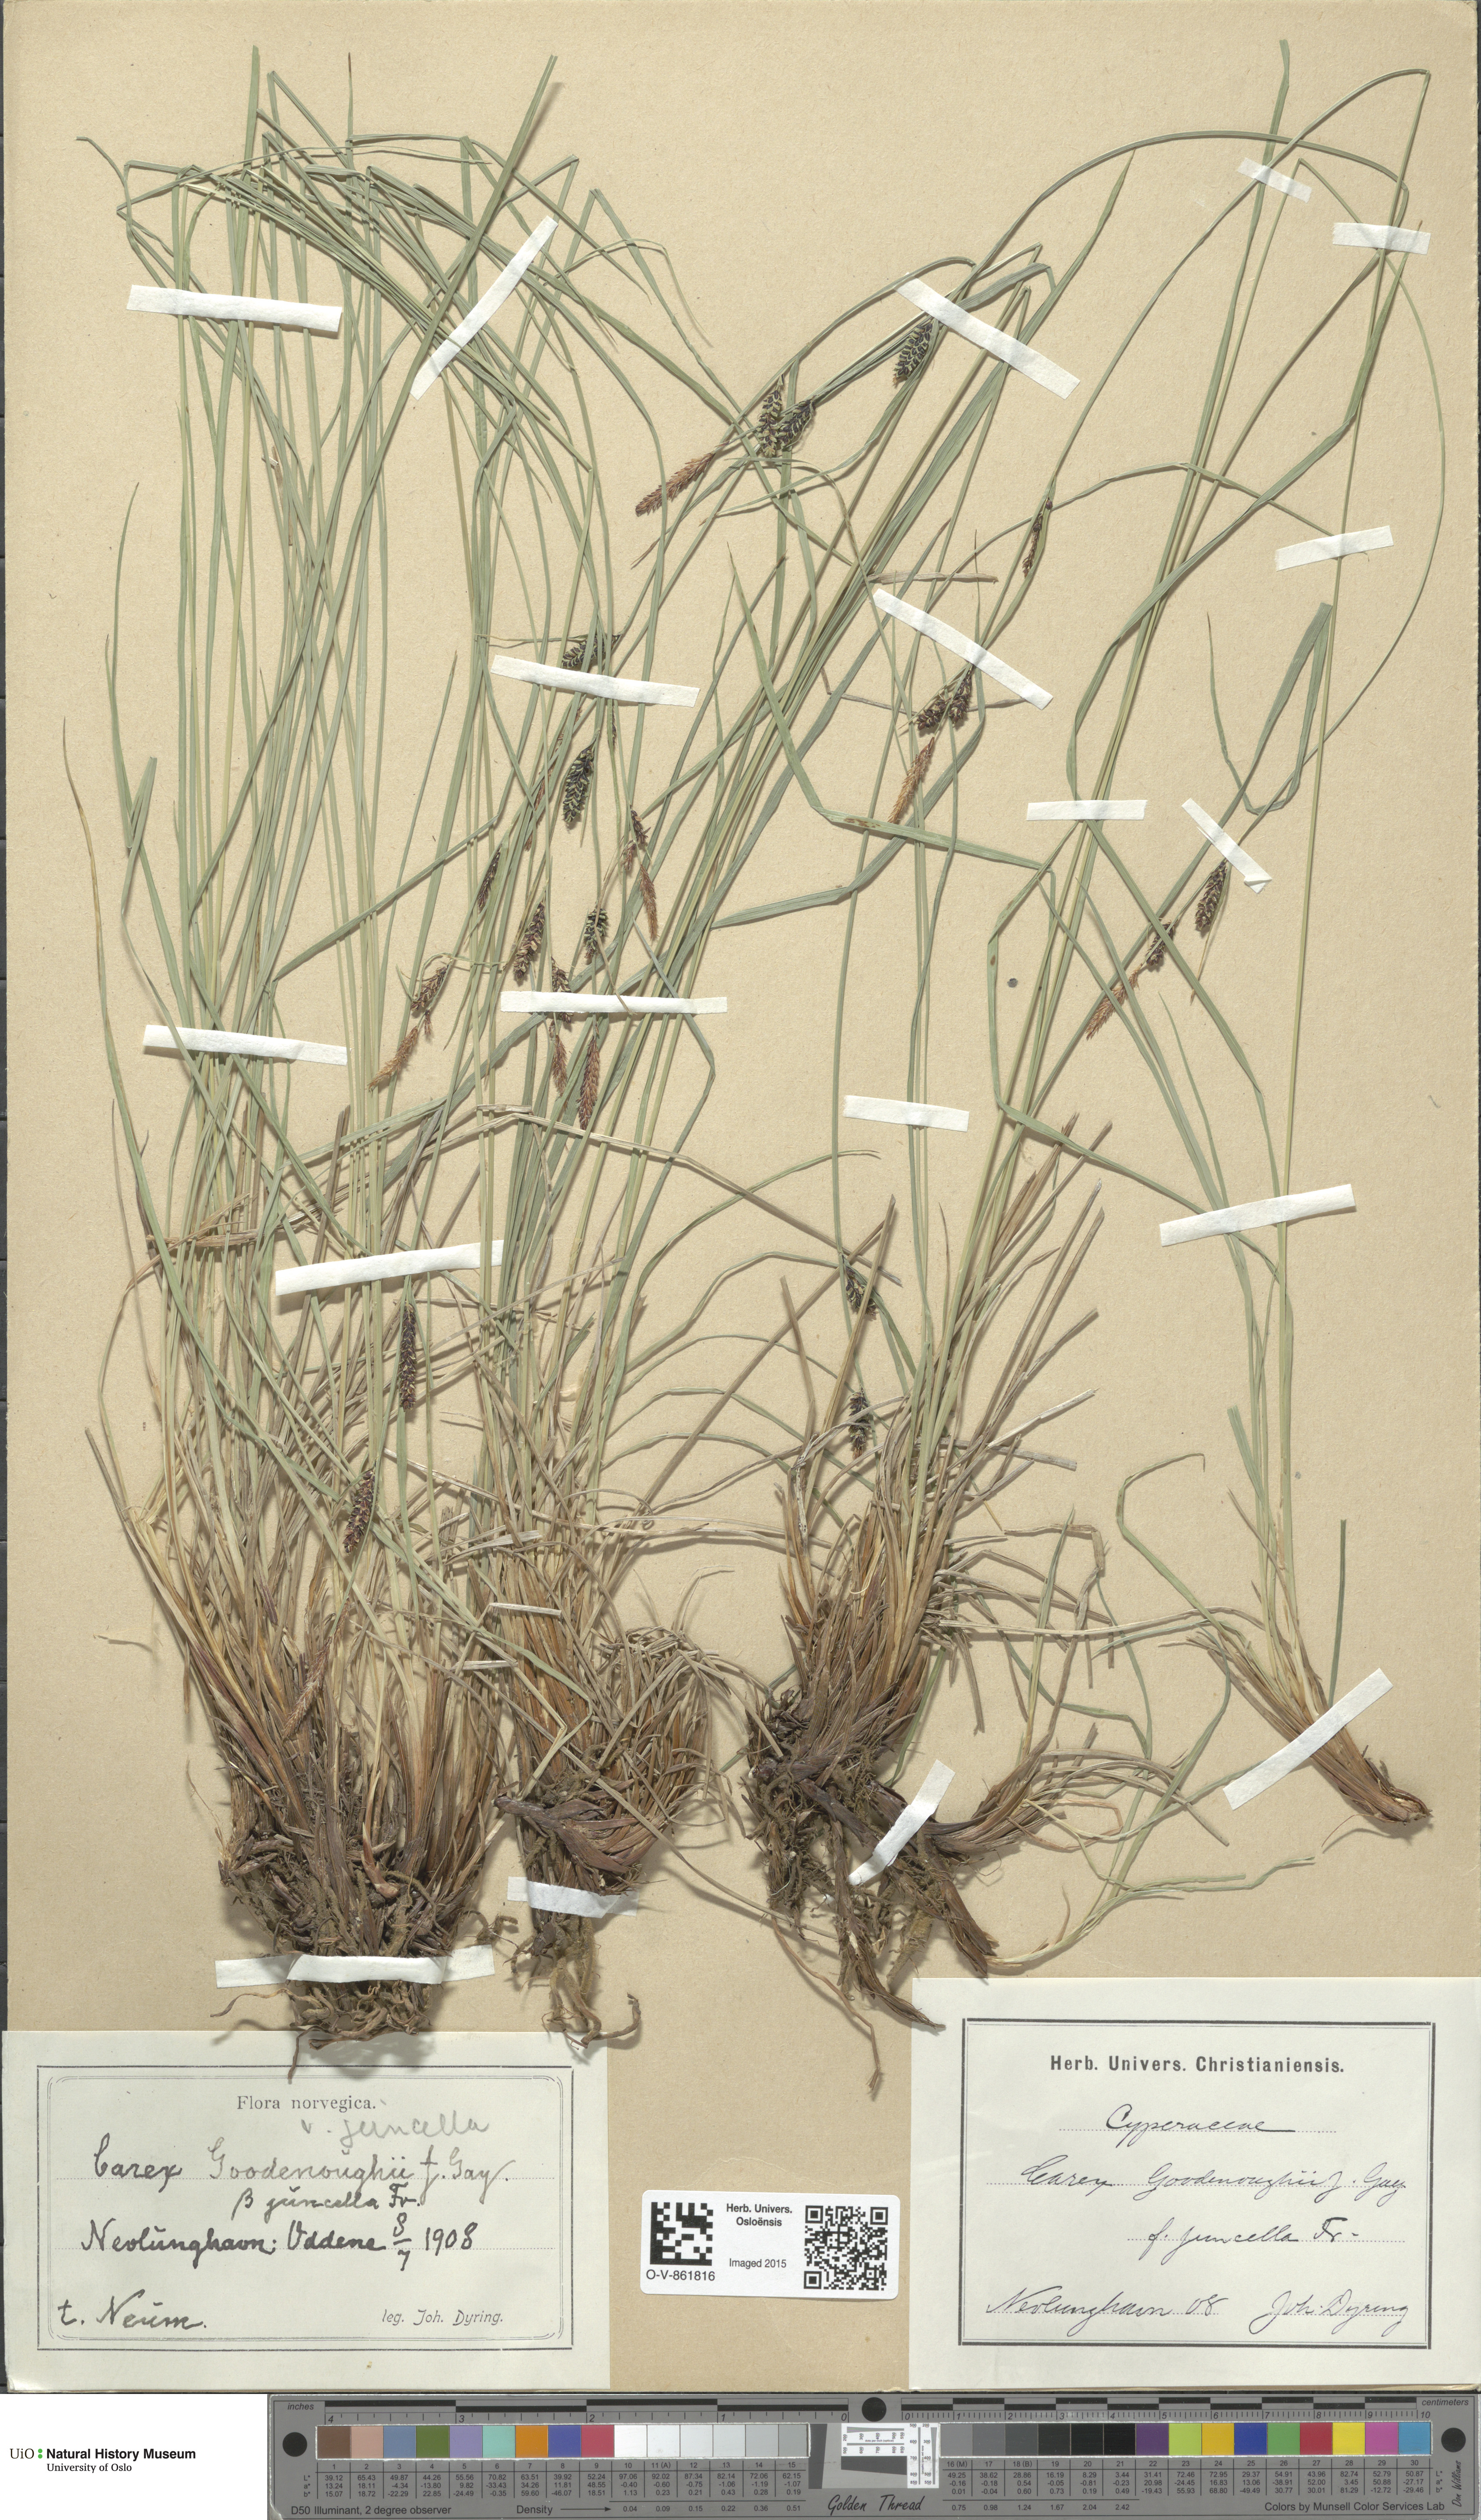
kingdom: Plantae
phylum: Tracheophyta
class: Liliopsida
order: Poales
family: Cyperaceae
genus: Carex
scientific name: Carex nigra
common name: Common sedge
